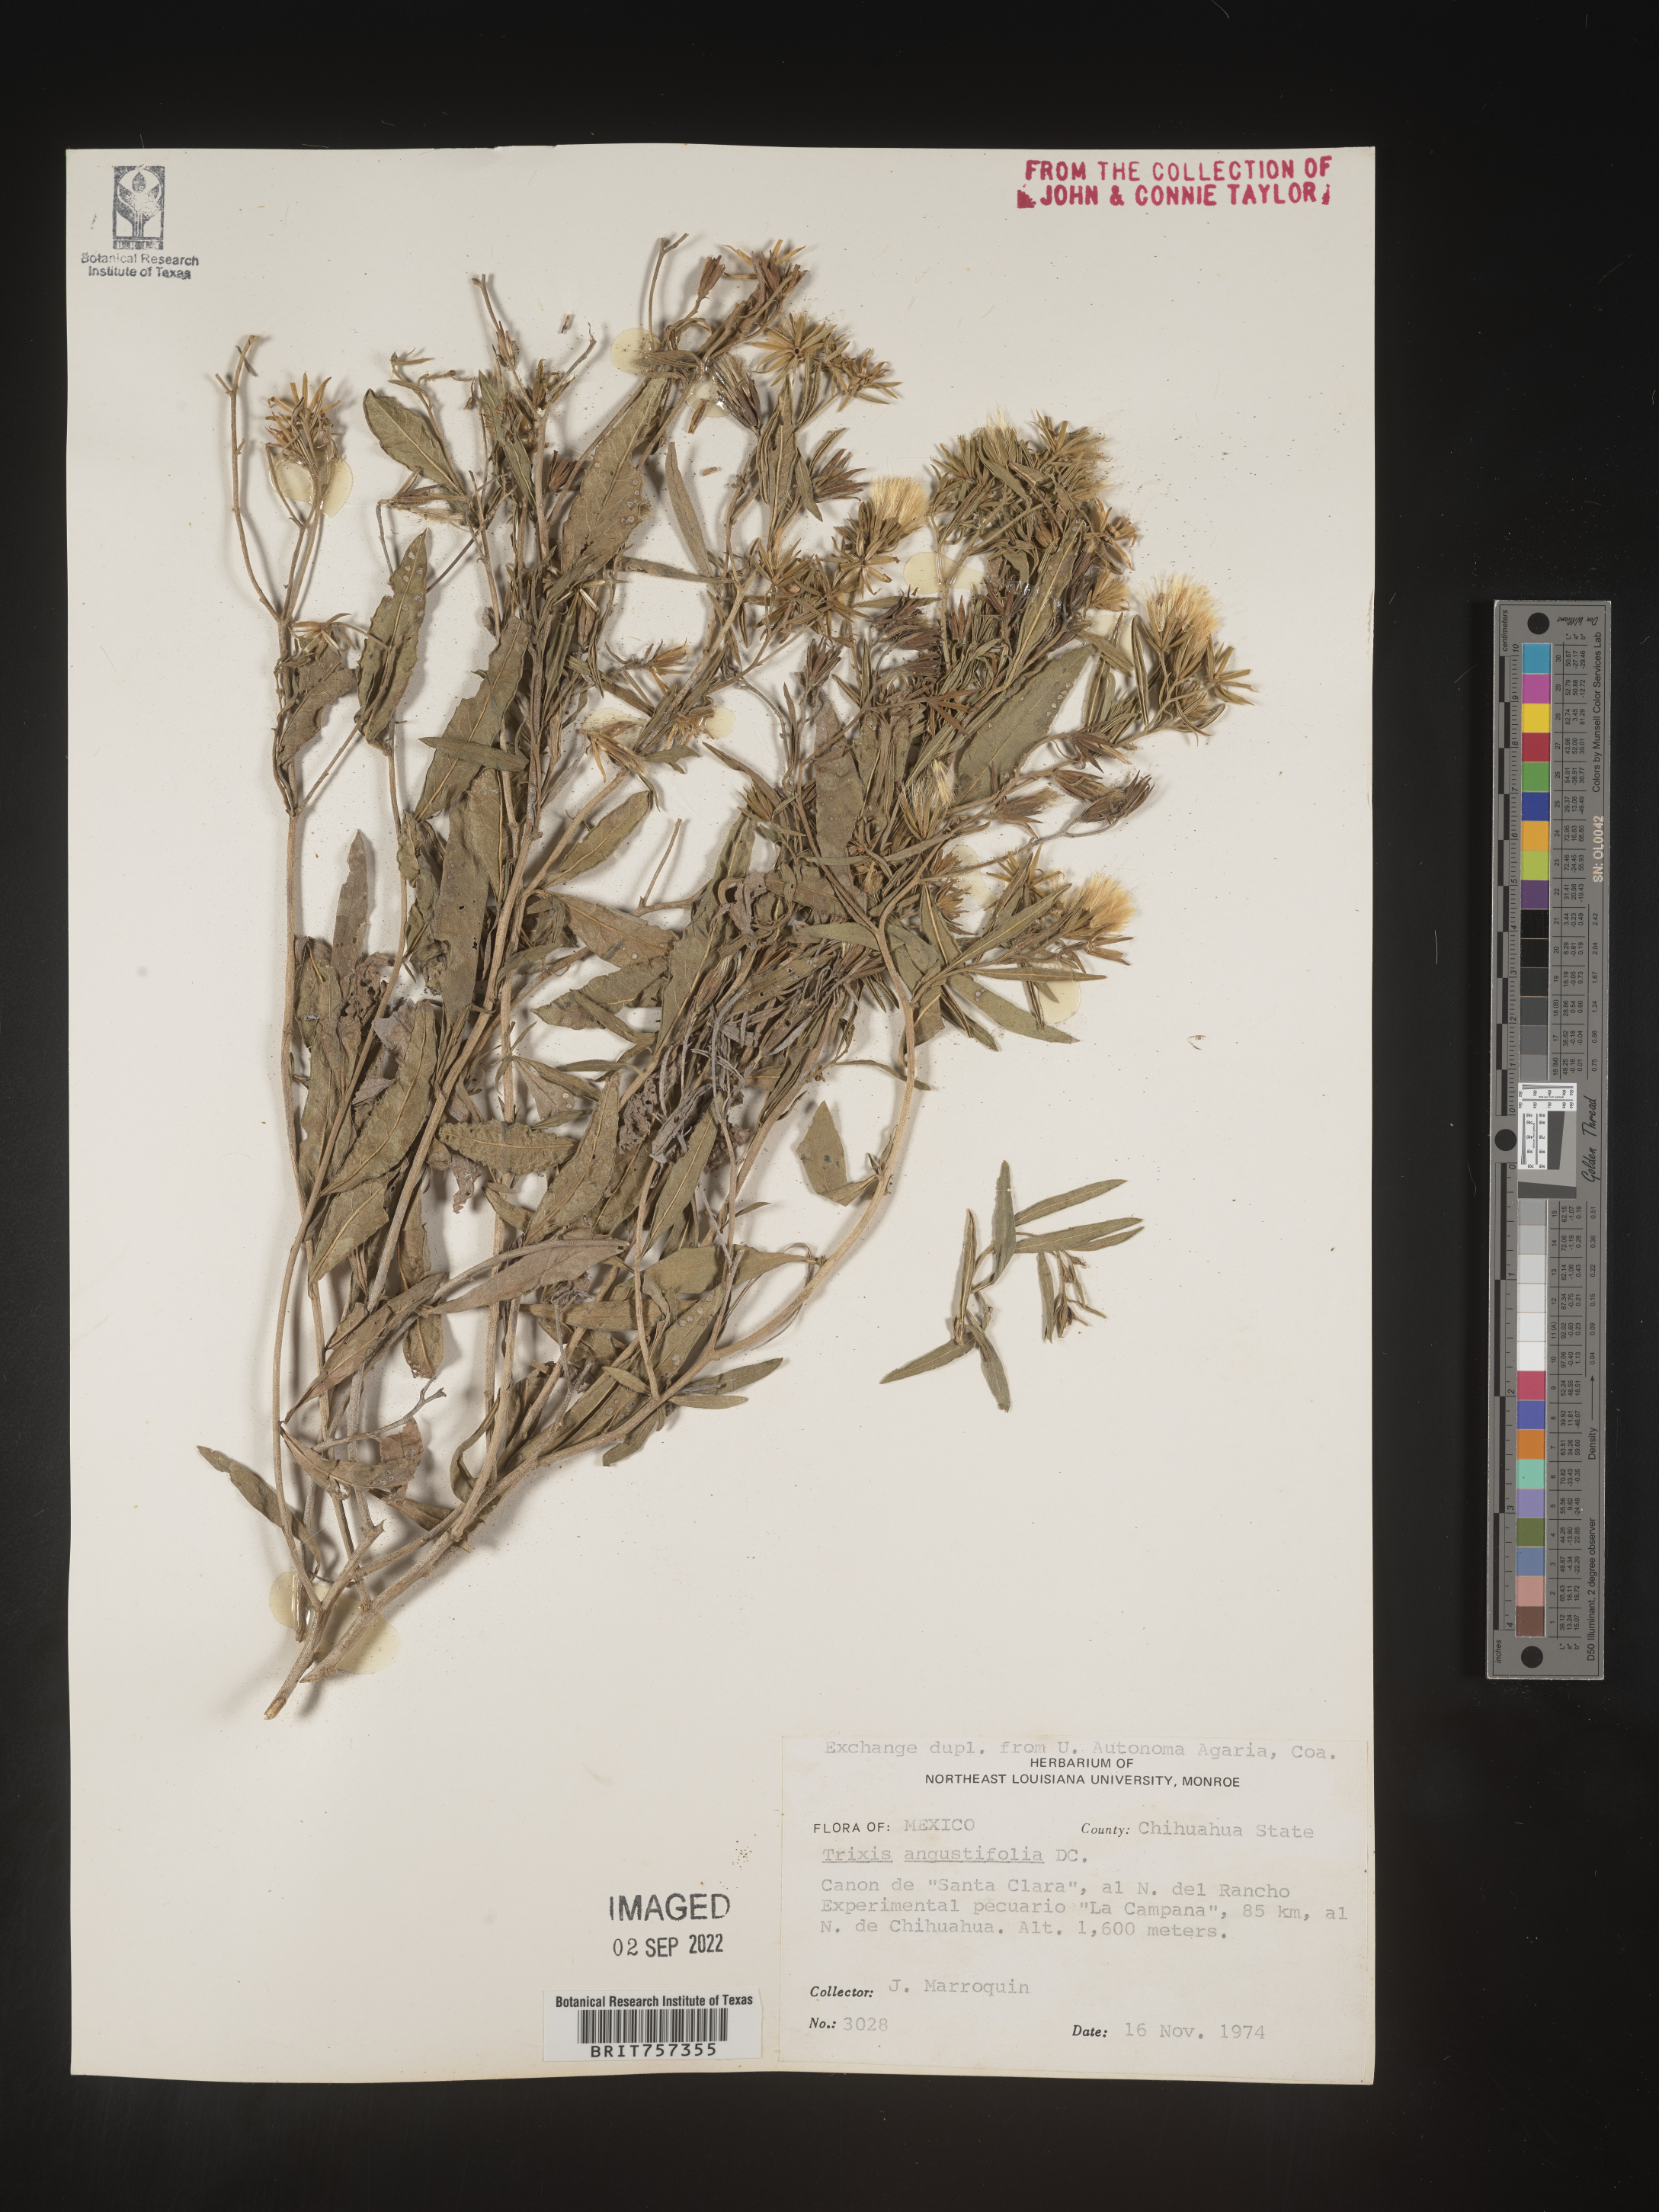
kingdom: Plantae
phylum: Tracheophyta
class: Magnoliopsida
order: Asterales
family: Asteraceae
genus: Trixis
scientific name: Trixis
